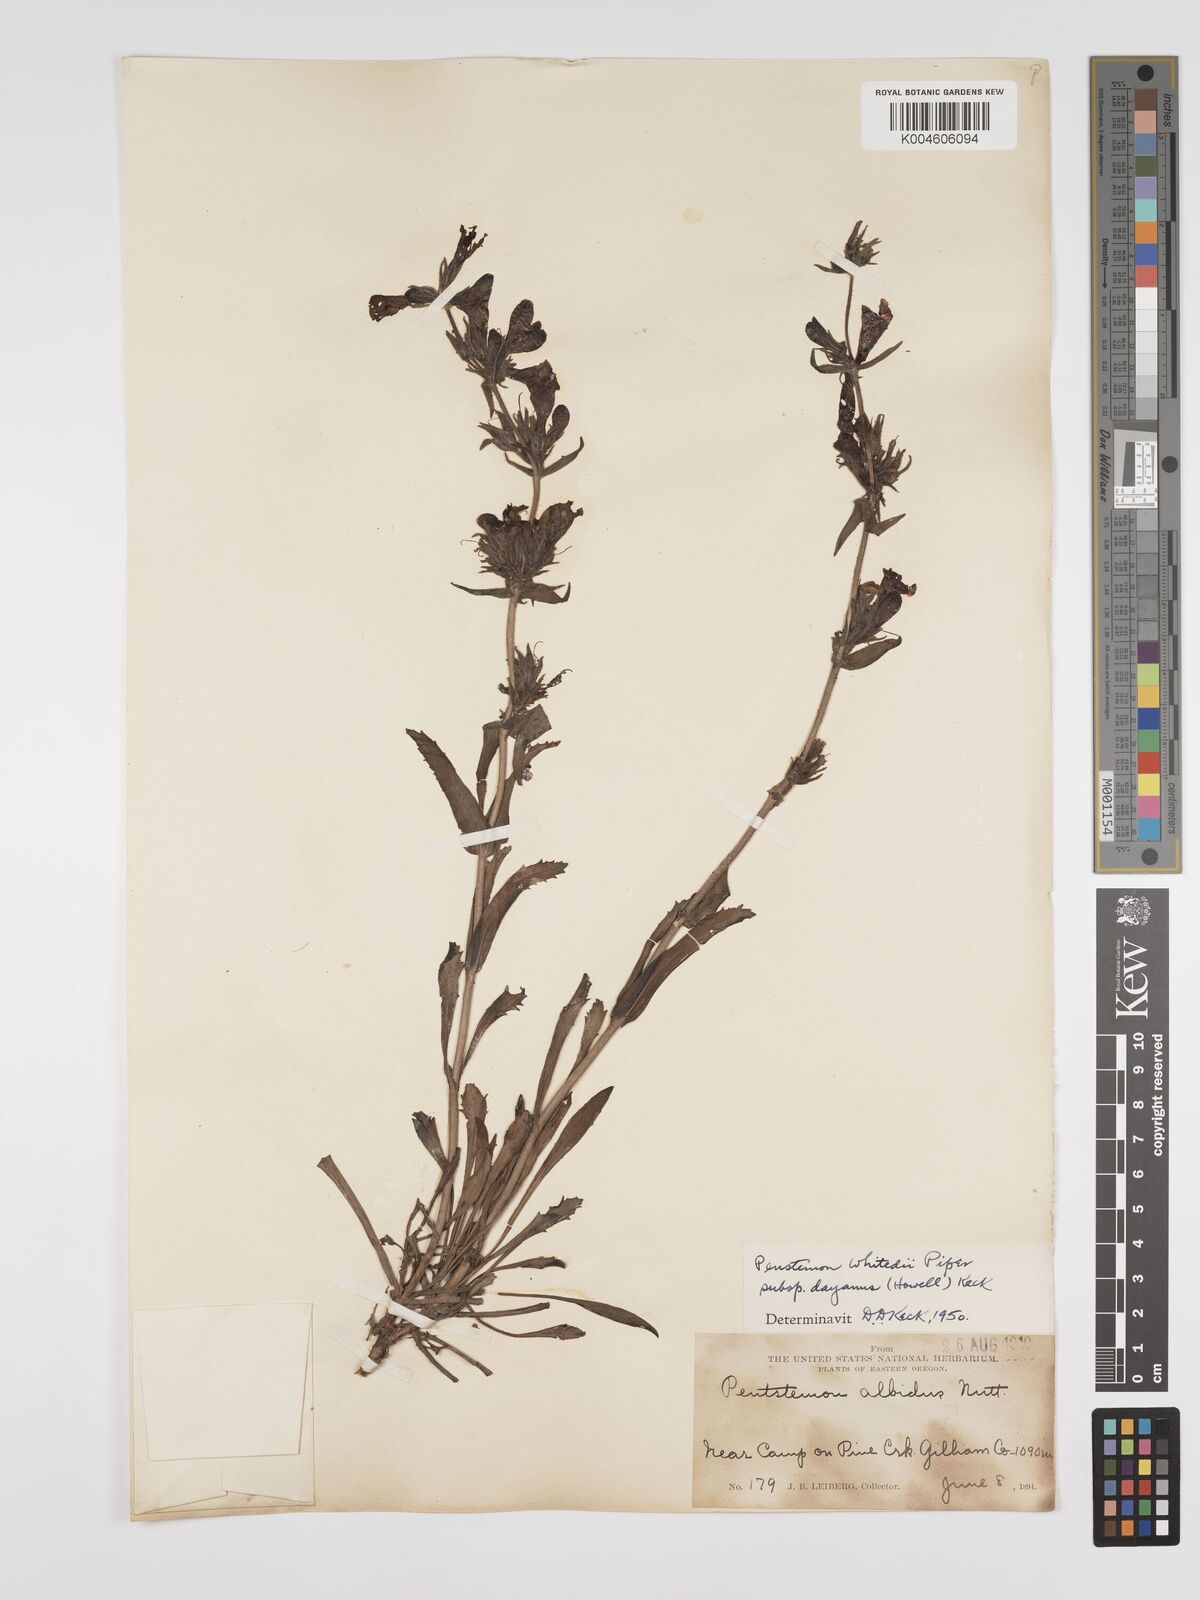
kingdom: Plantae
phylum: Tracheophyta
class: Magnoliopsida
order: Lamiales
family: Plantaginaceae
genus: Penstemon
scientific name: Penstemon eriantherus
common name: Crested beardtongue
